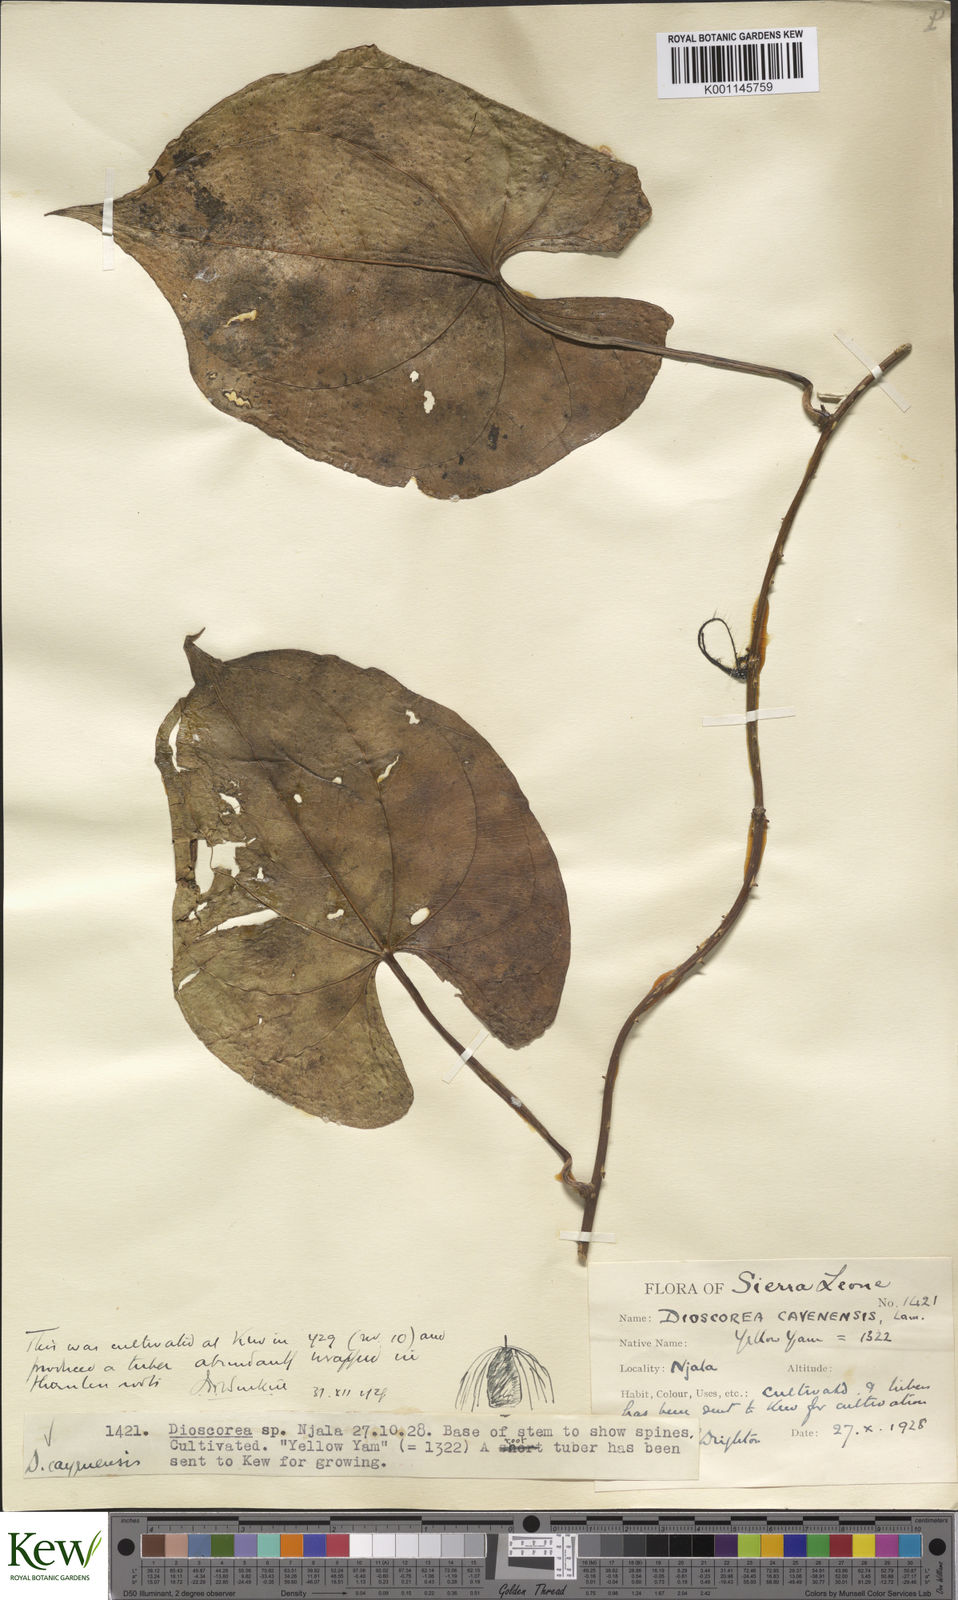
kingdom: Plantae
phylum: Tracheophyta
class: Liliopsida
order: Dioscoreales
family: Dioscoreaceae
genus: Dioscorea
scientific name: Dioscorea cayenensis
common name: Attoto yam
